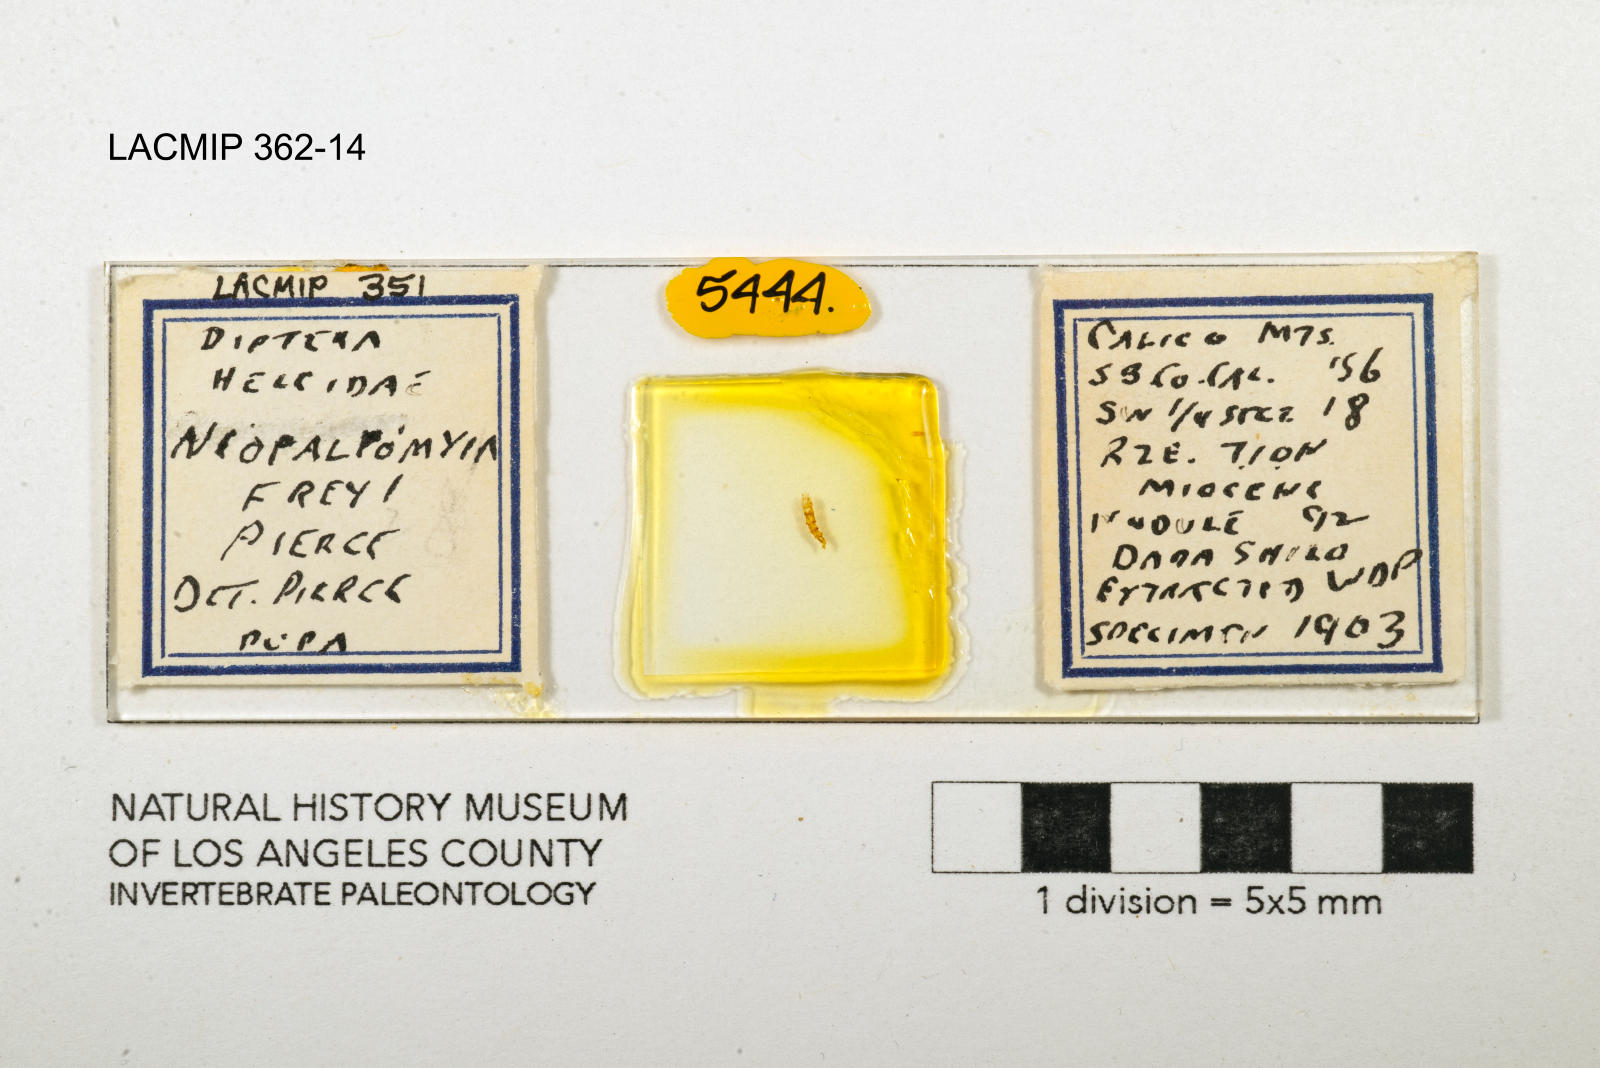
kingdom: Animalia
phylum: Arthropoda
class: Insecta
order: Diptera
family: Ceratopogonidae
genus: Palpomyia
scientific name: Palpomyia freyi
